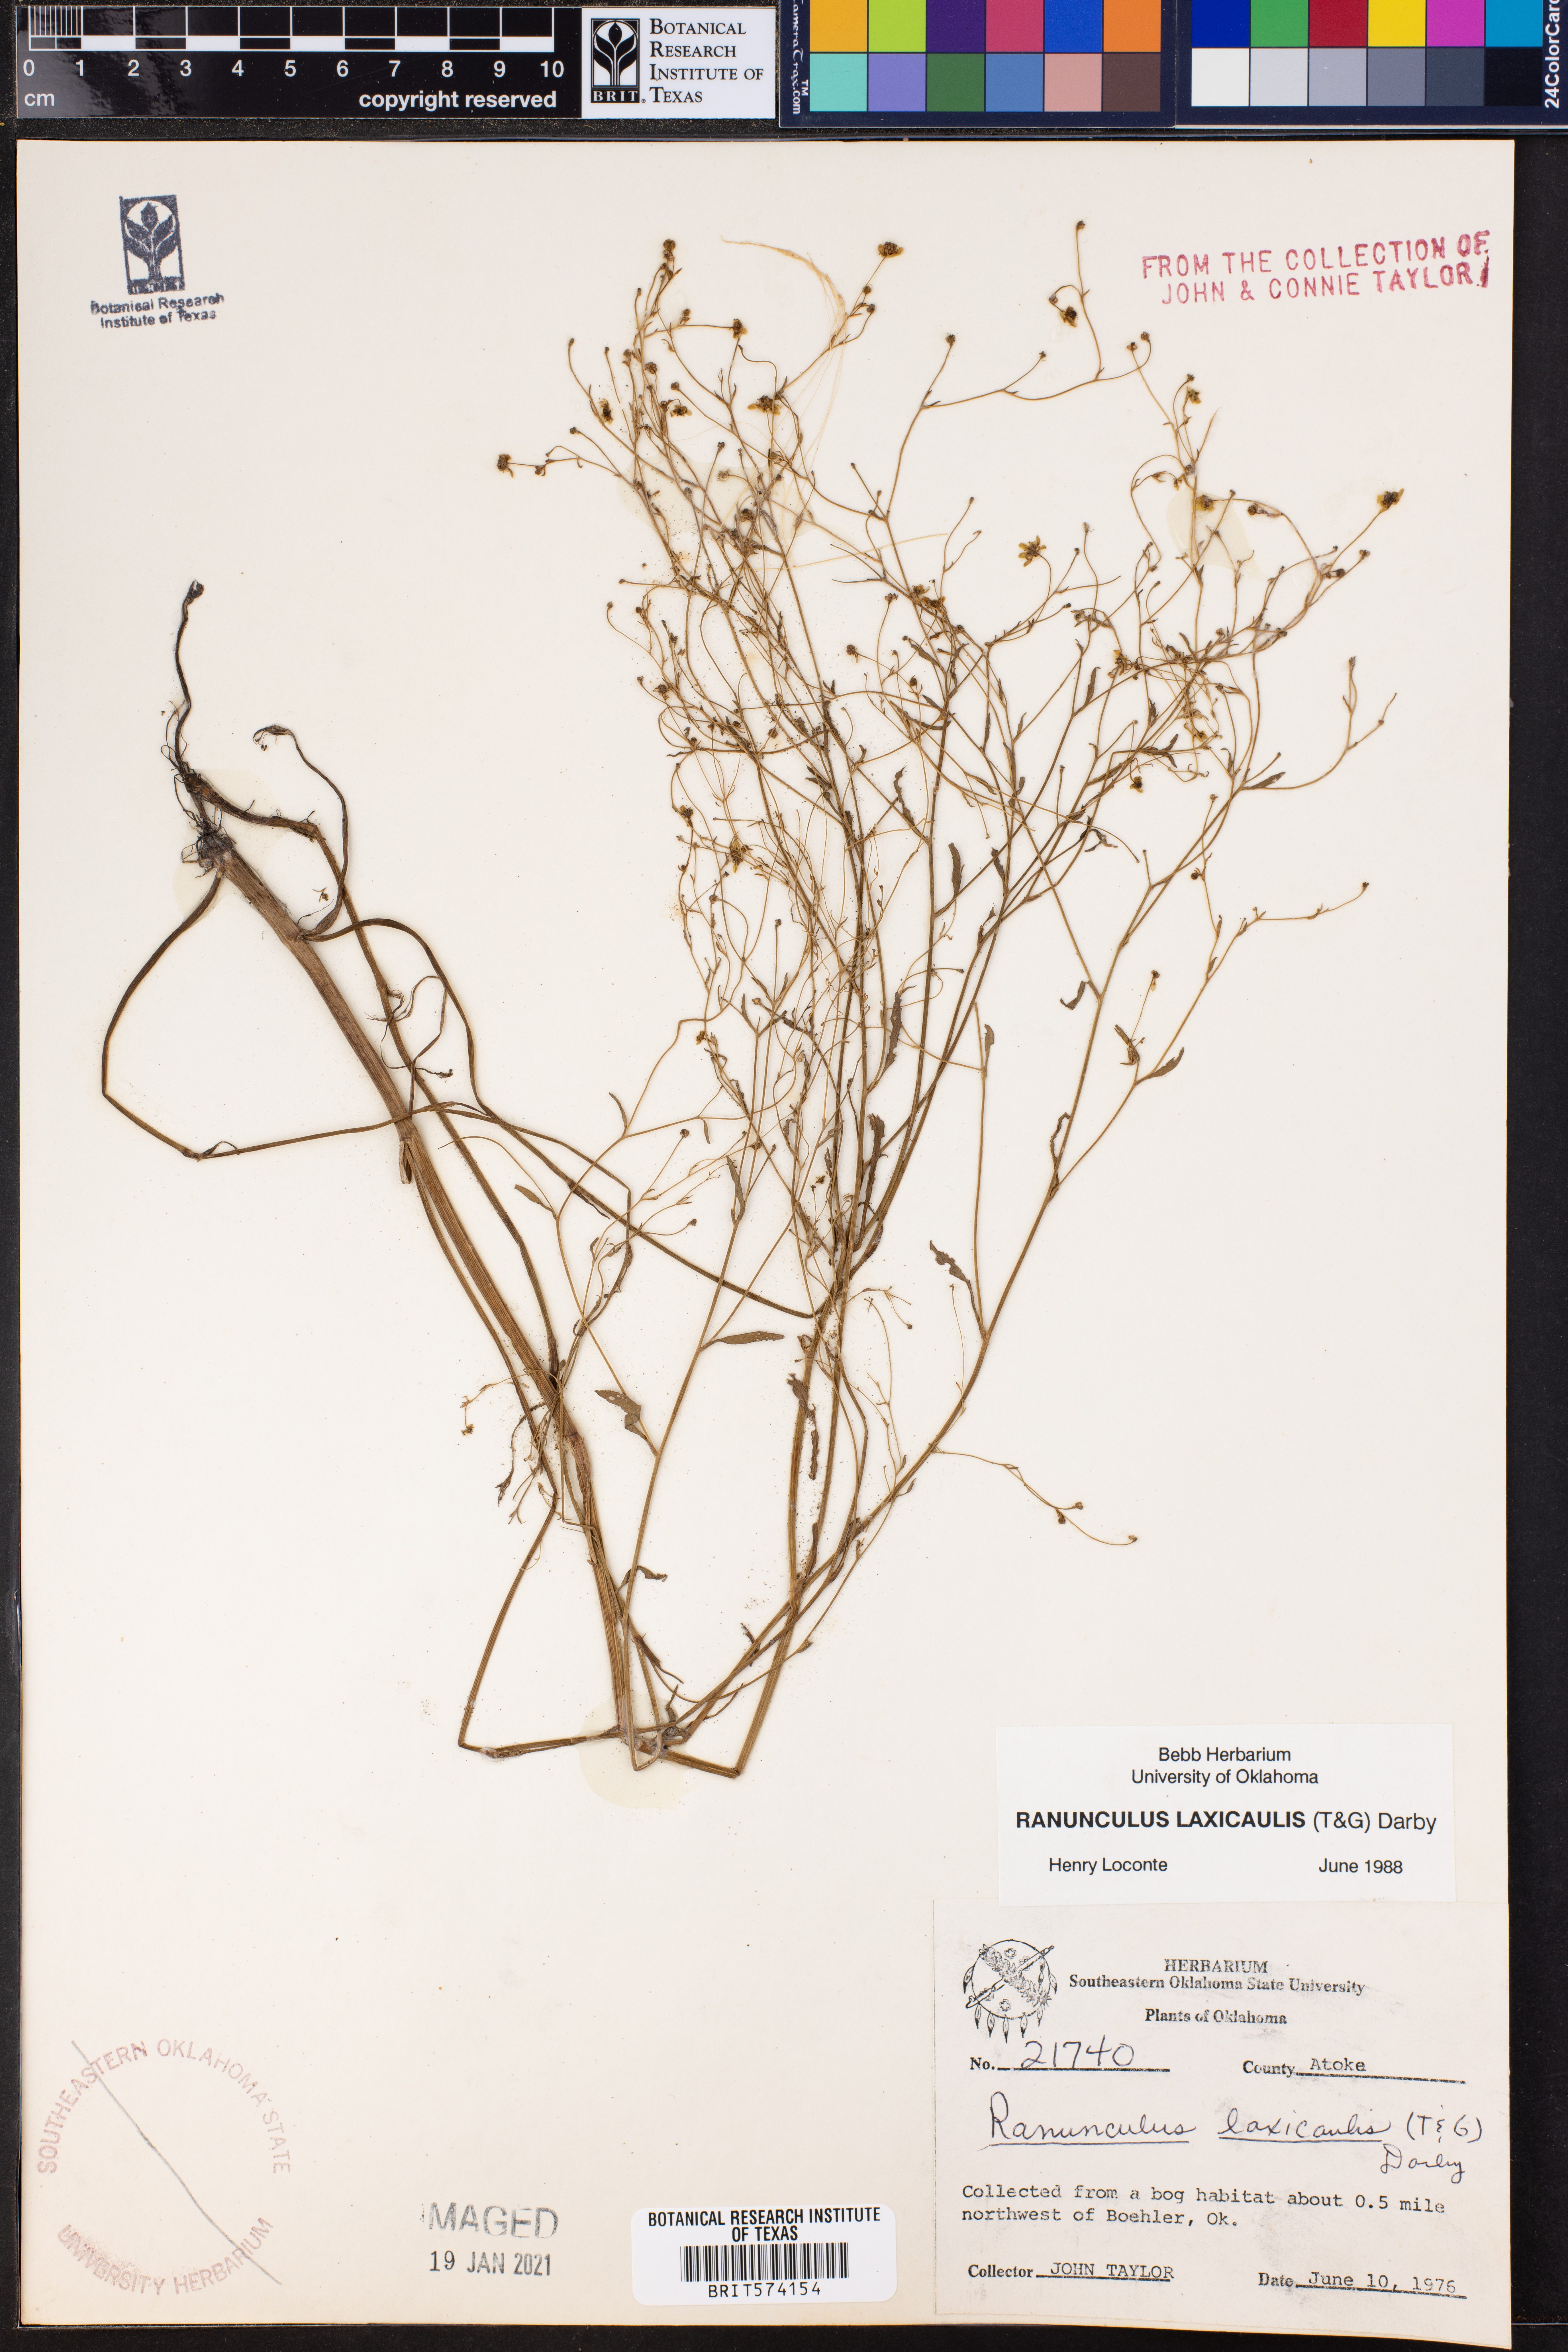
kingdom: Plantae
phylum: Tracheophyta
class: Magnoliopsida
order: Ranunculales
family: Ranunculaceae
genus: Ranunculus
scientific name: Ranunculus laxicaulis
